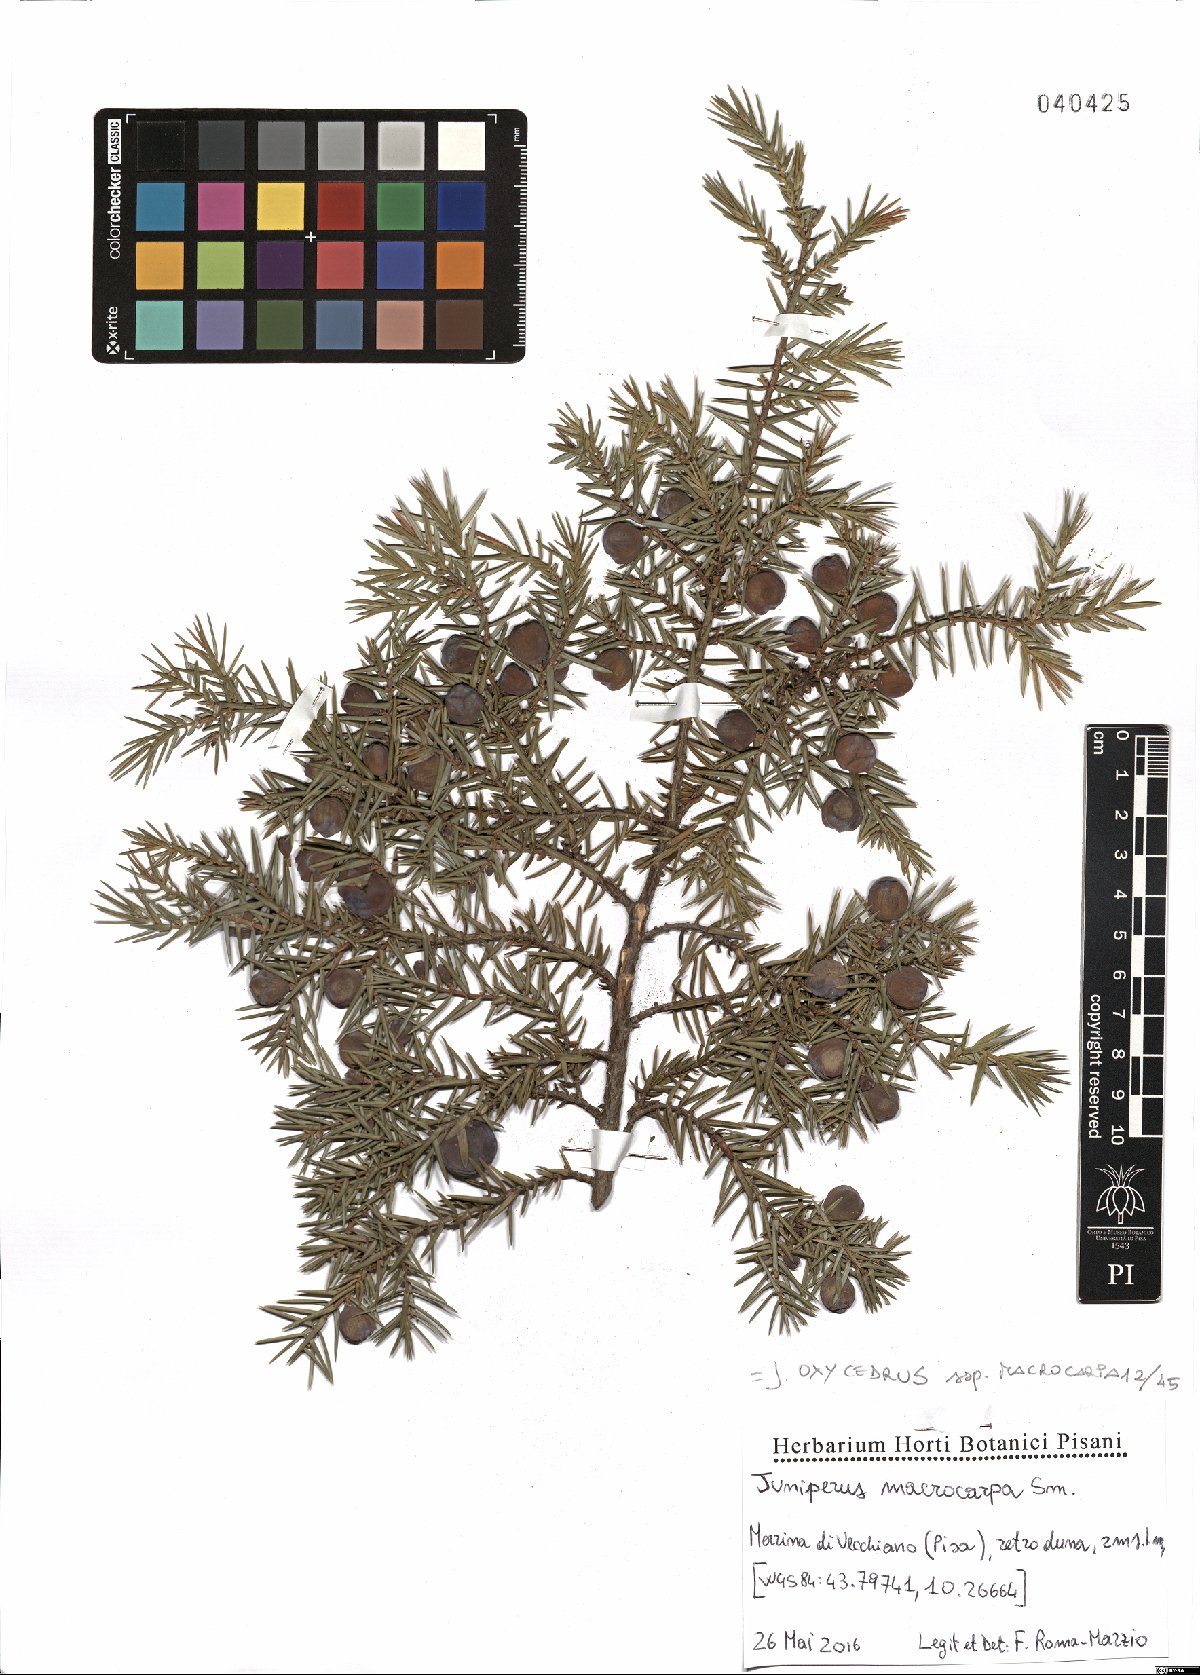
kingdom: Plantae
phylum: Tracheophyta
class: Pinopsida
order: Pinales
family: Cupressaceae
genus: Juniperus
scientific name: Juniperus oxycedrus
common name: Prickly juniper
